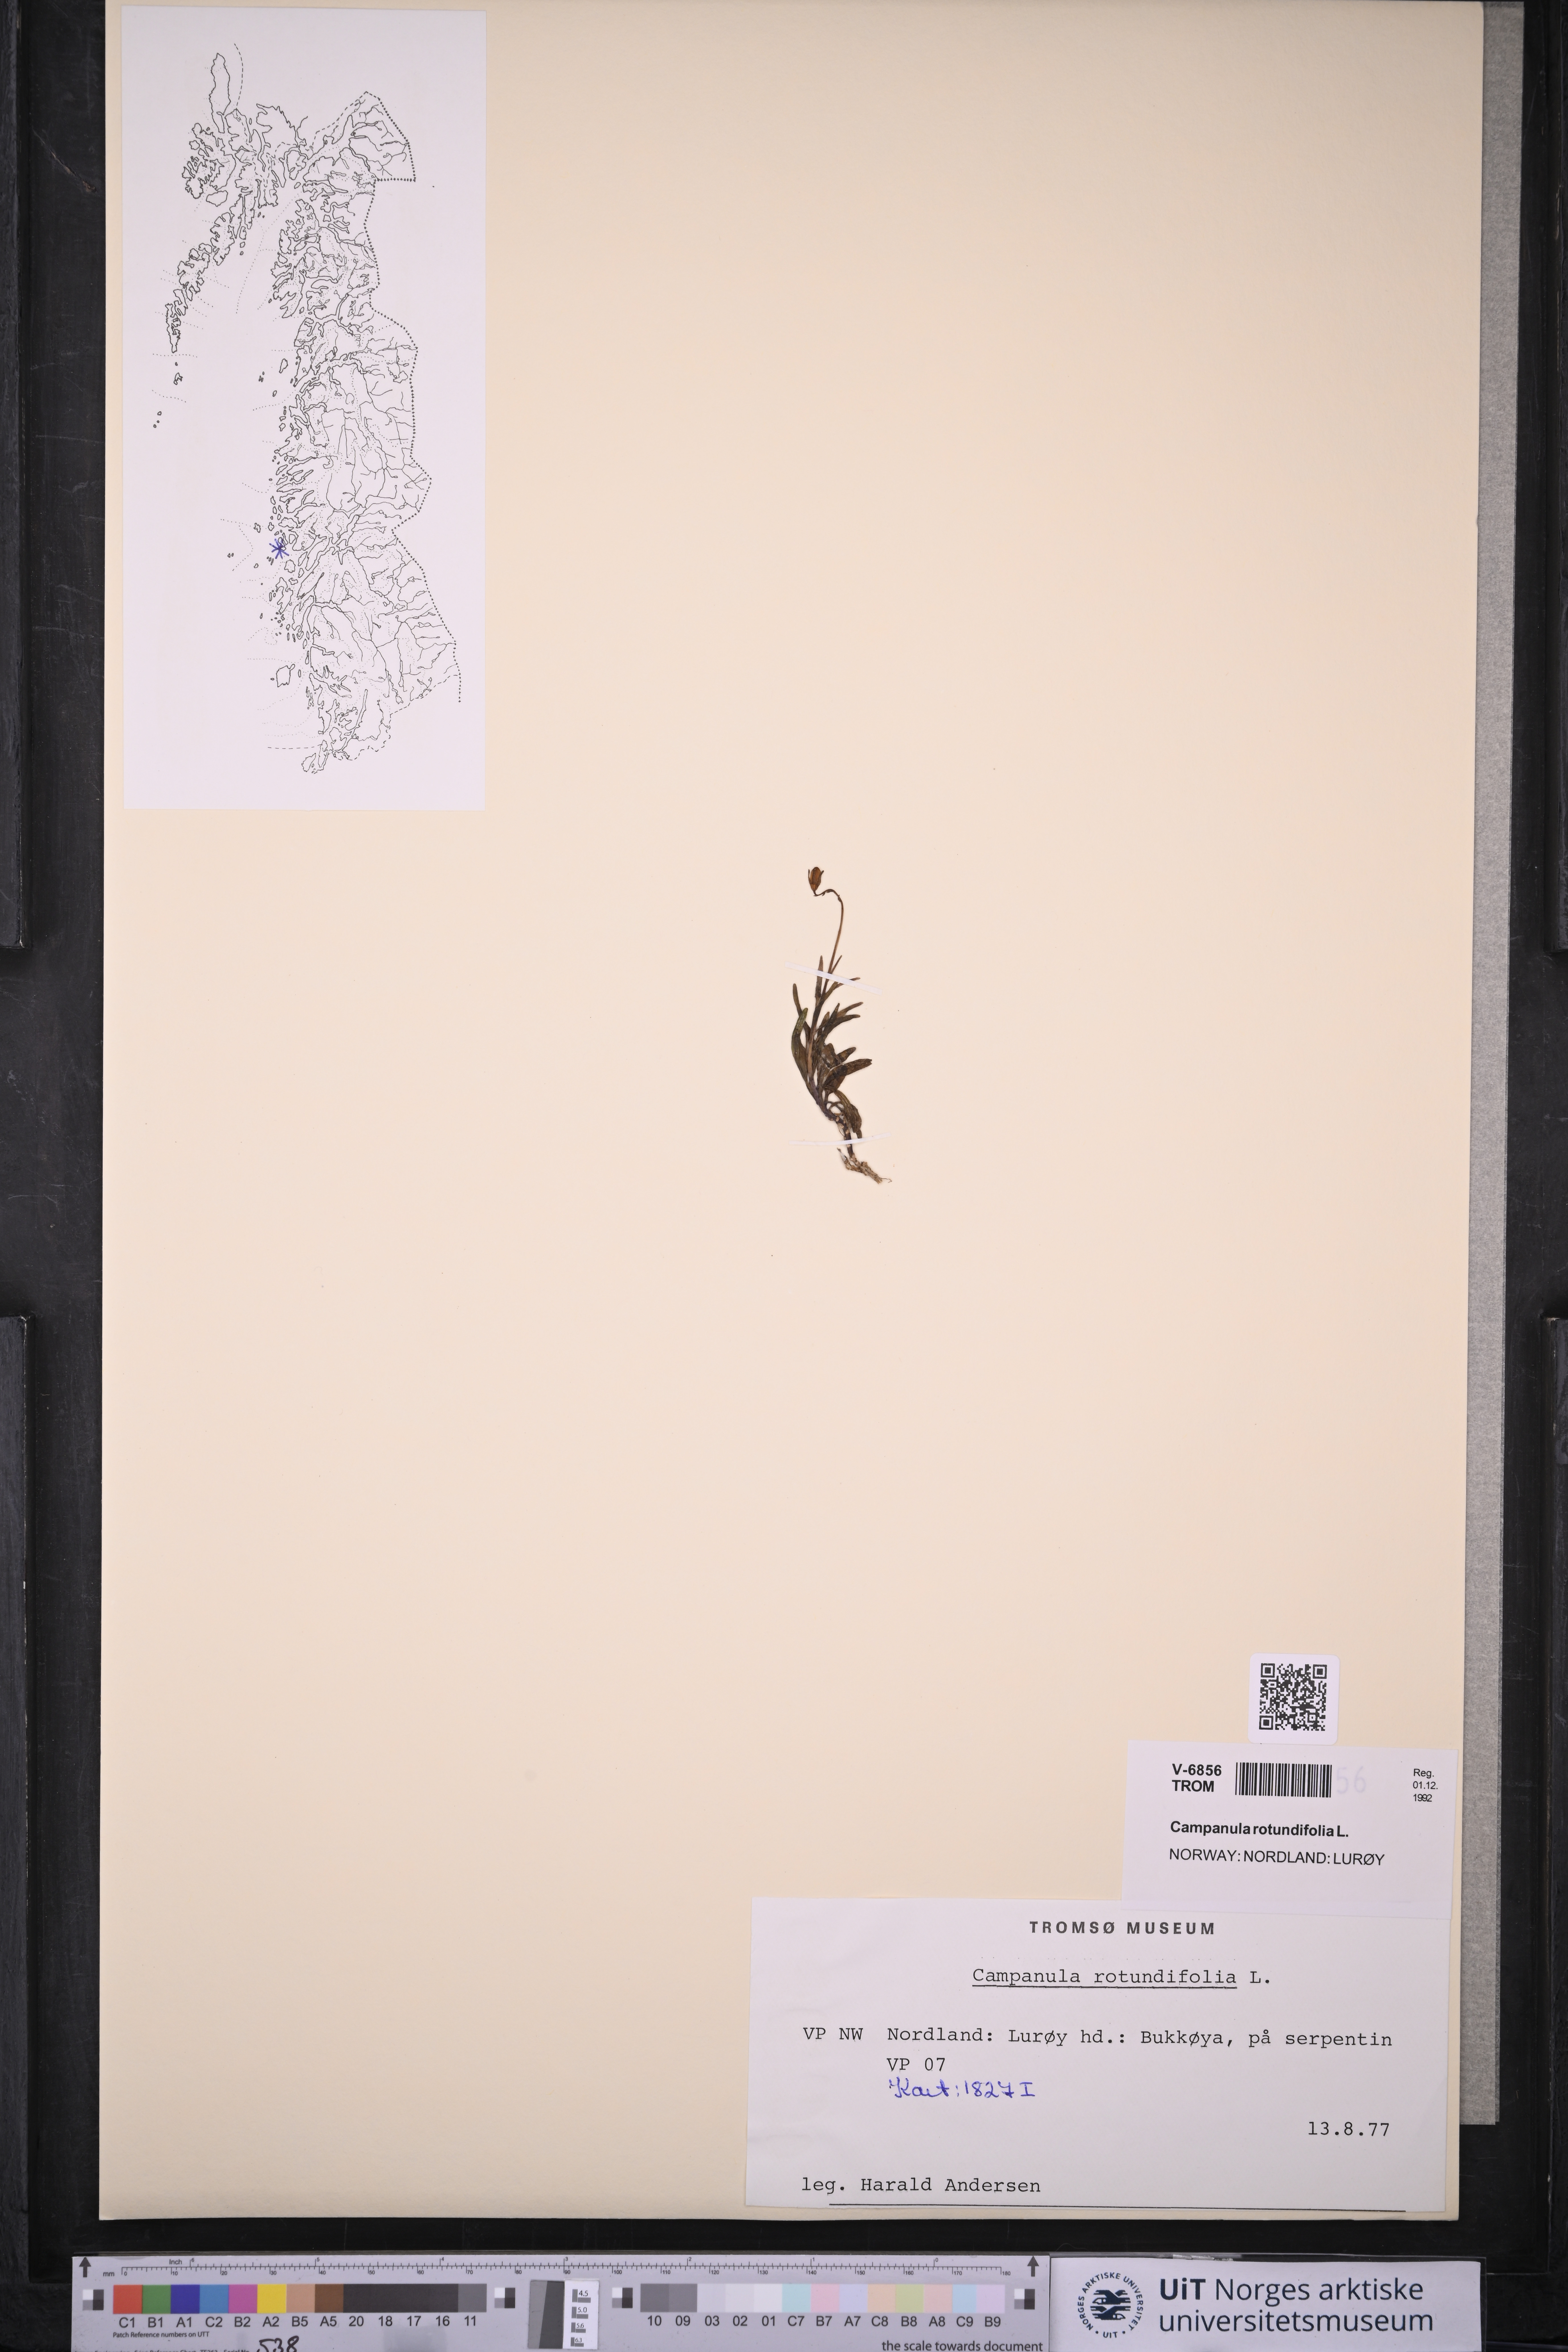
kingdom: Plantae
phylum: Tracheophyta
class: Magnoliopsida
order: Asterales
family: Campanulaceae
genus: Campanula
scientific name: Campanula rotundifolia
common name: Harebell
